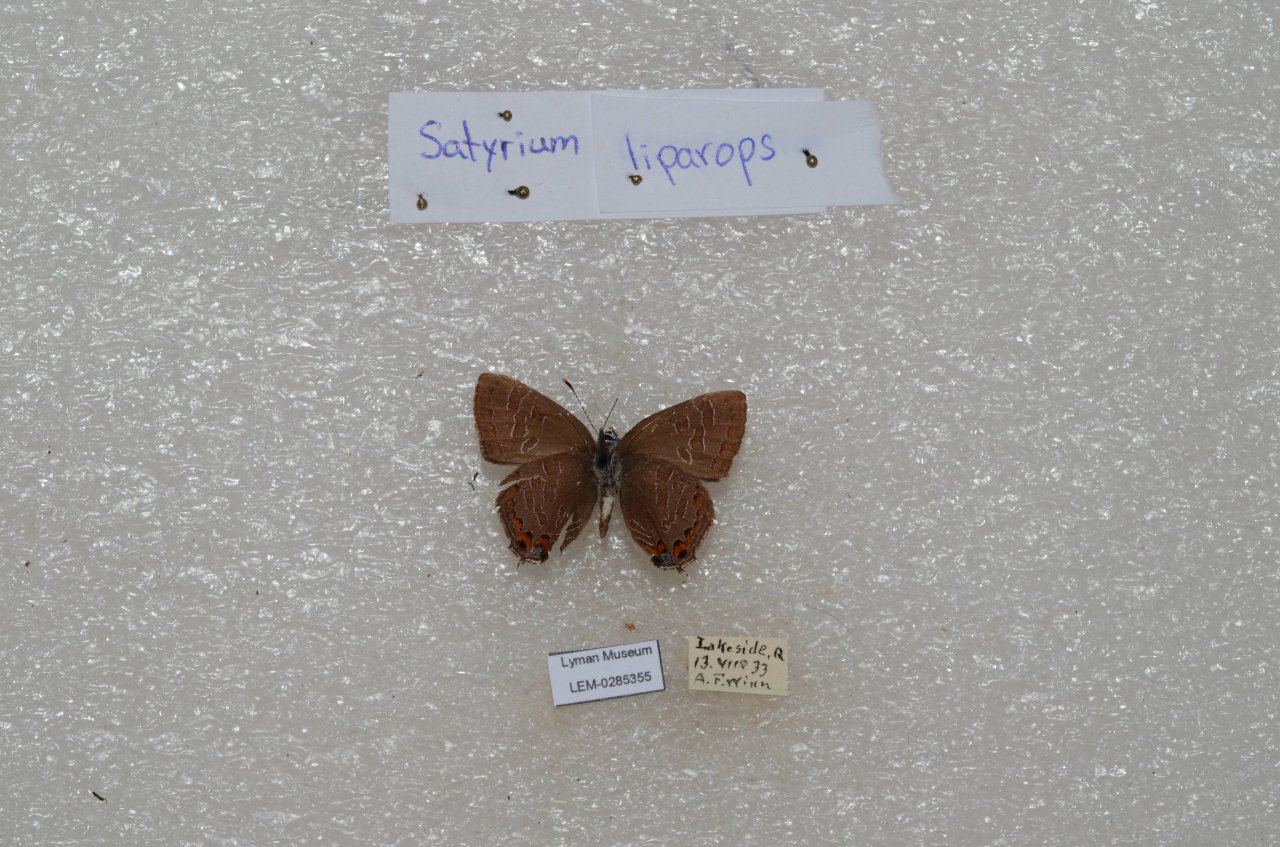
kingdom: Animalia
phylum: Arthropoda
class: Insecta
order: Lepidoptera
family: Lycaenidae
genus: Satyrium
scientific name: Satyrium liparops
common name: Striped Hairstreak
